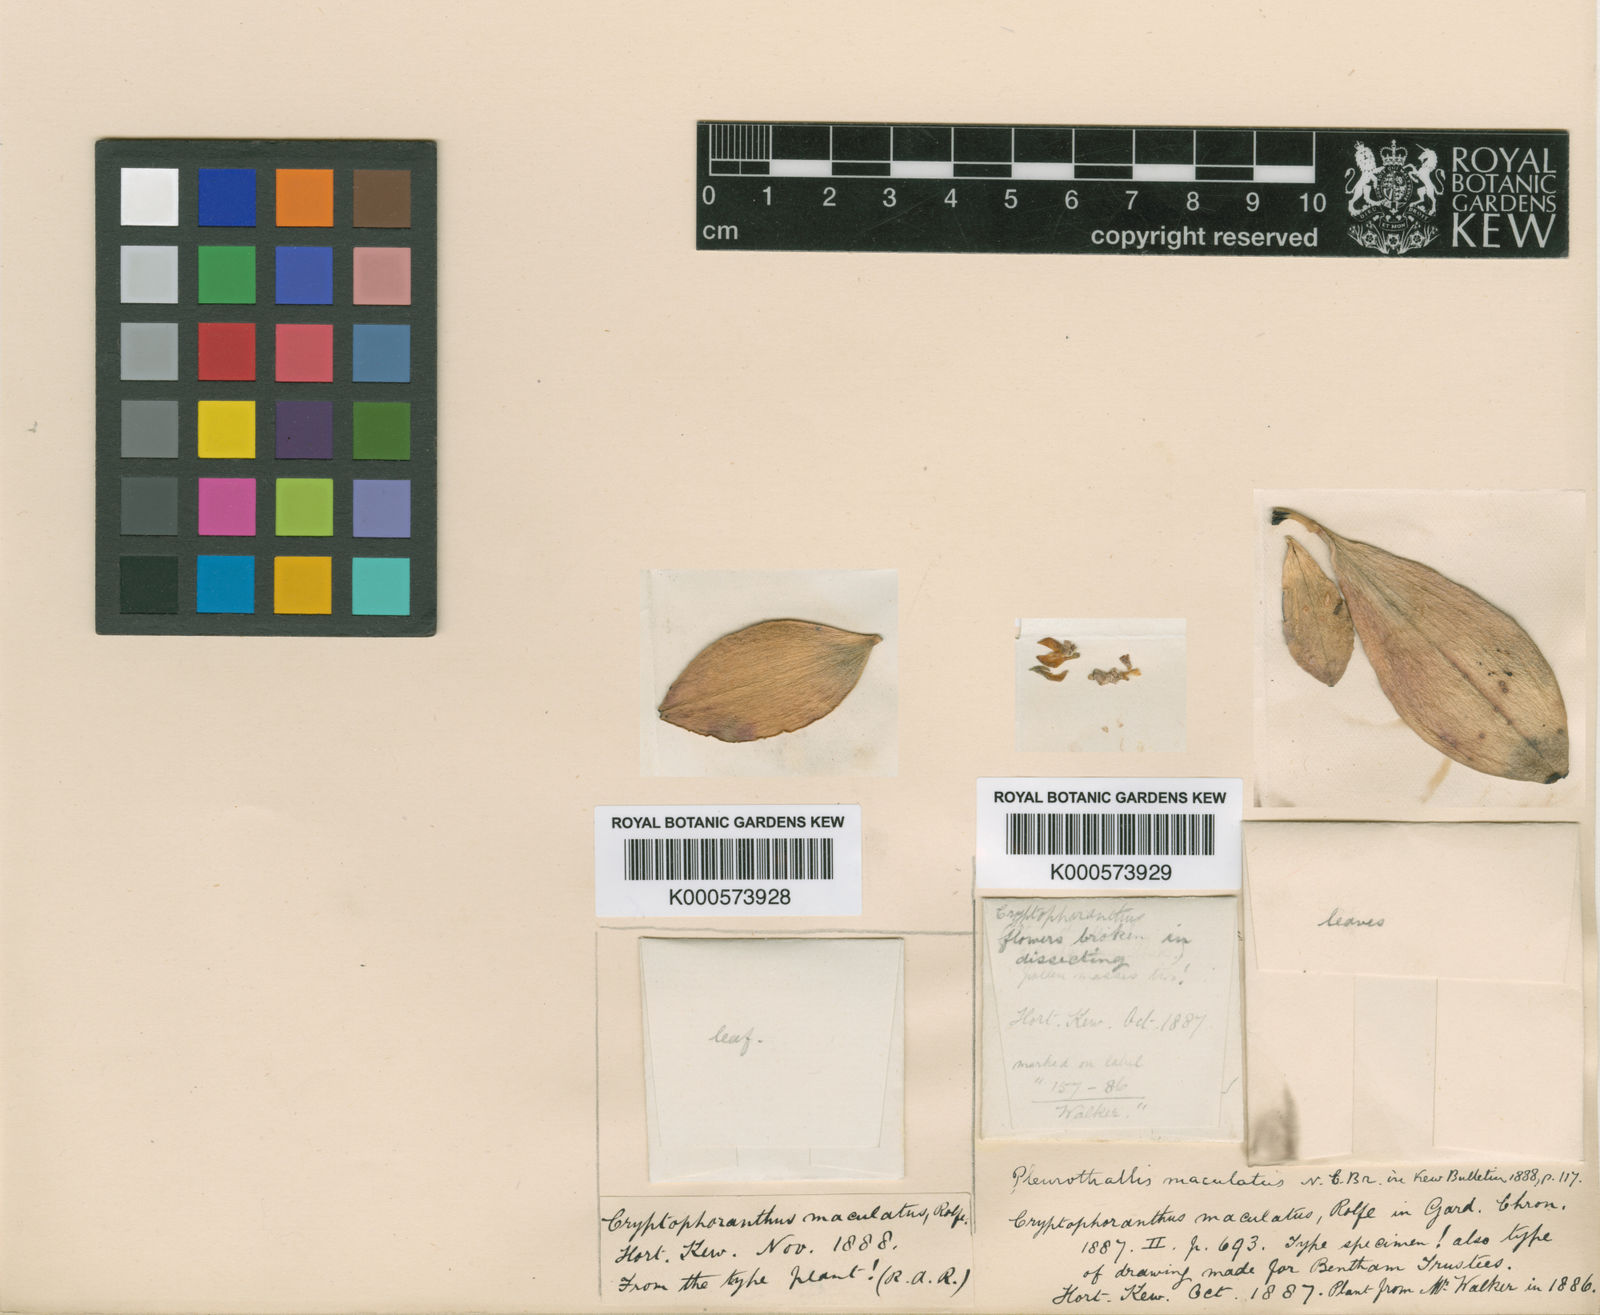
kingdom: Plantae
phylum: Tracheophyta
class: Liliopsida
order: Asparagales
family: Orchidaceae
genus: Acianthera
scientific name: Acianthera recurva
